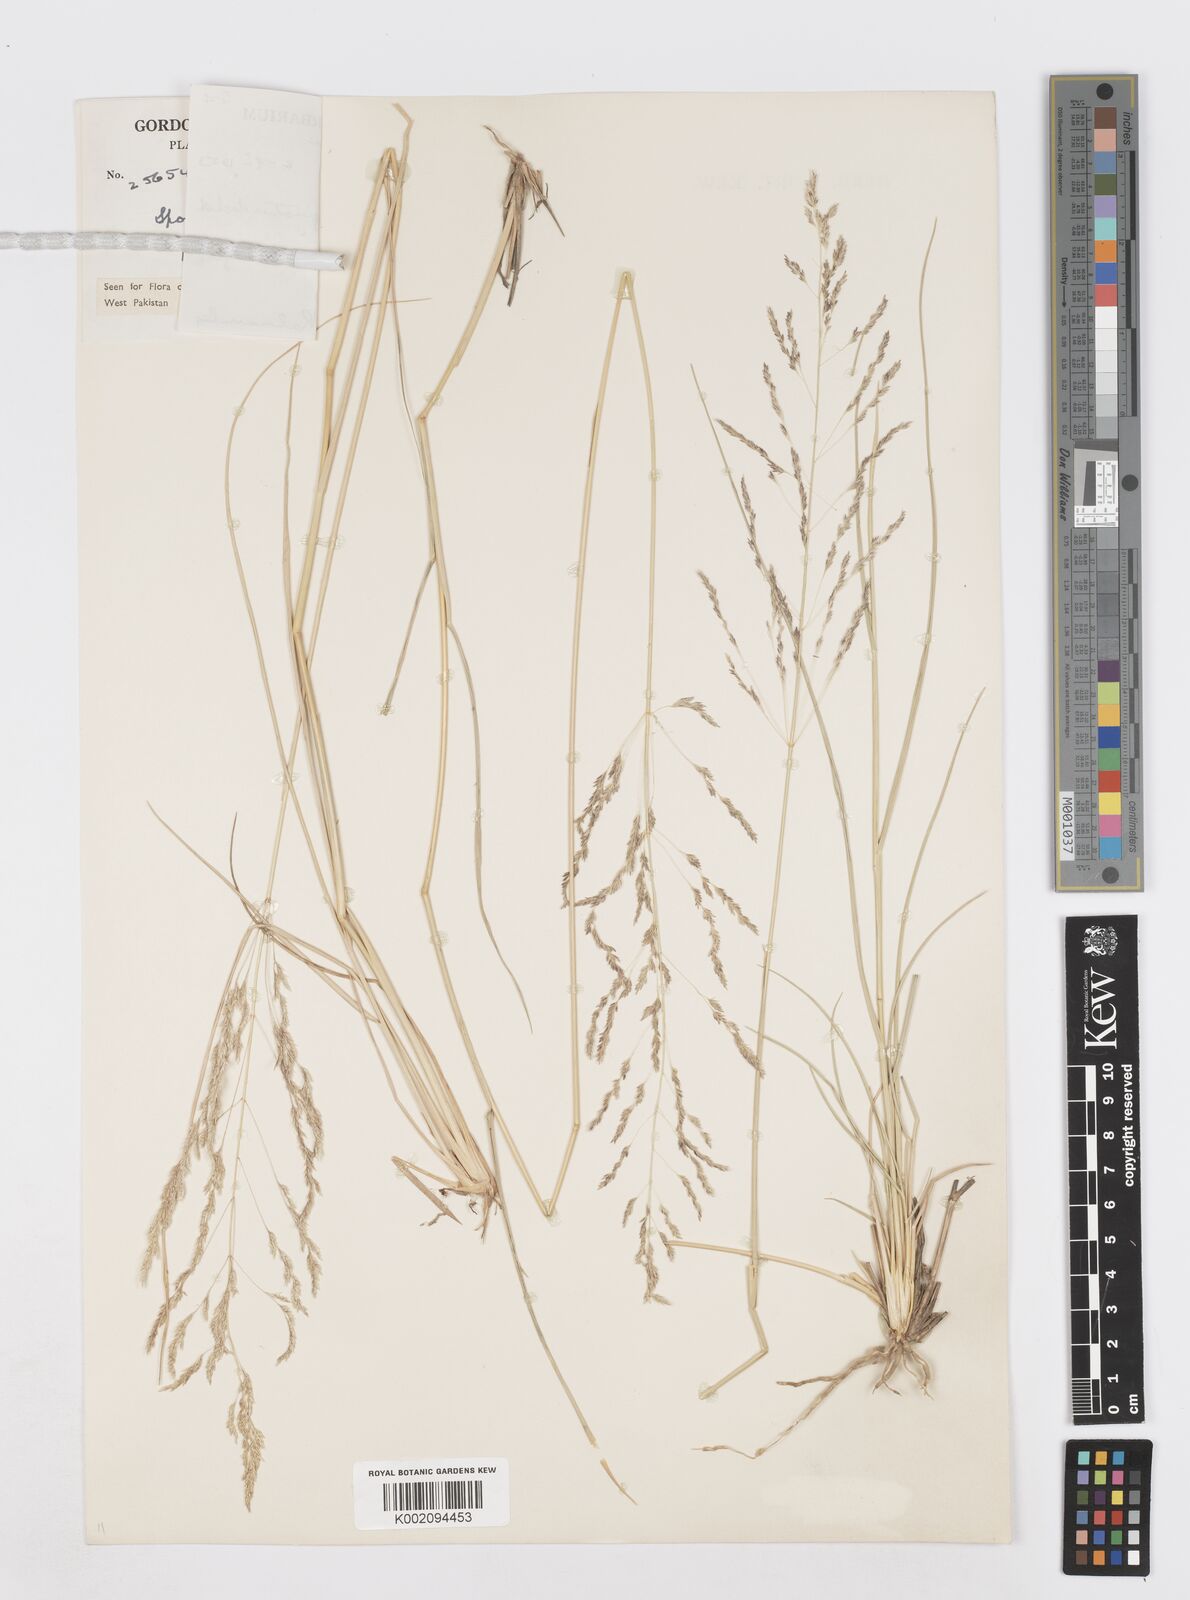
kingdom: Plantae
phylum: Tracheophyta
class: Liliopsida
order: Poales
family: Poaceae
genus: Sporobolus
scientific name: Sporobolus ioclados
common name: Pan dropseed
